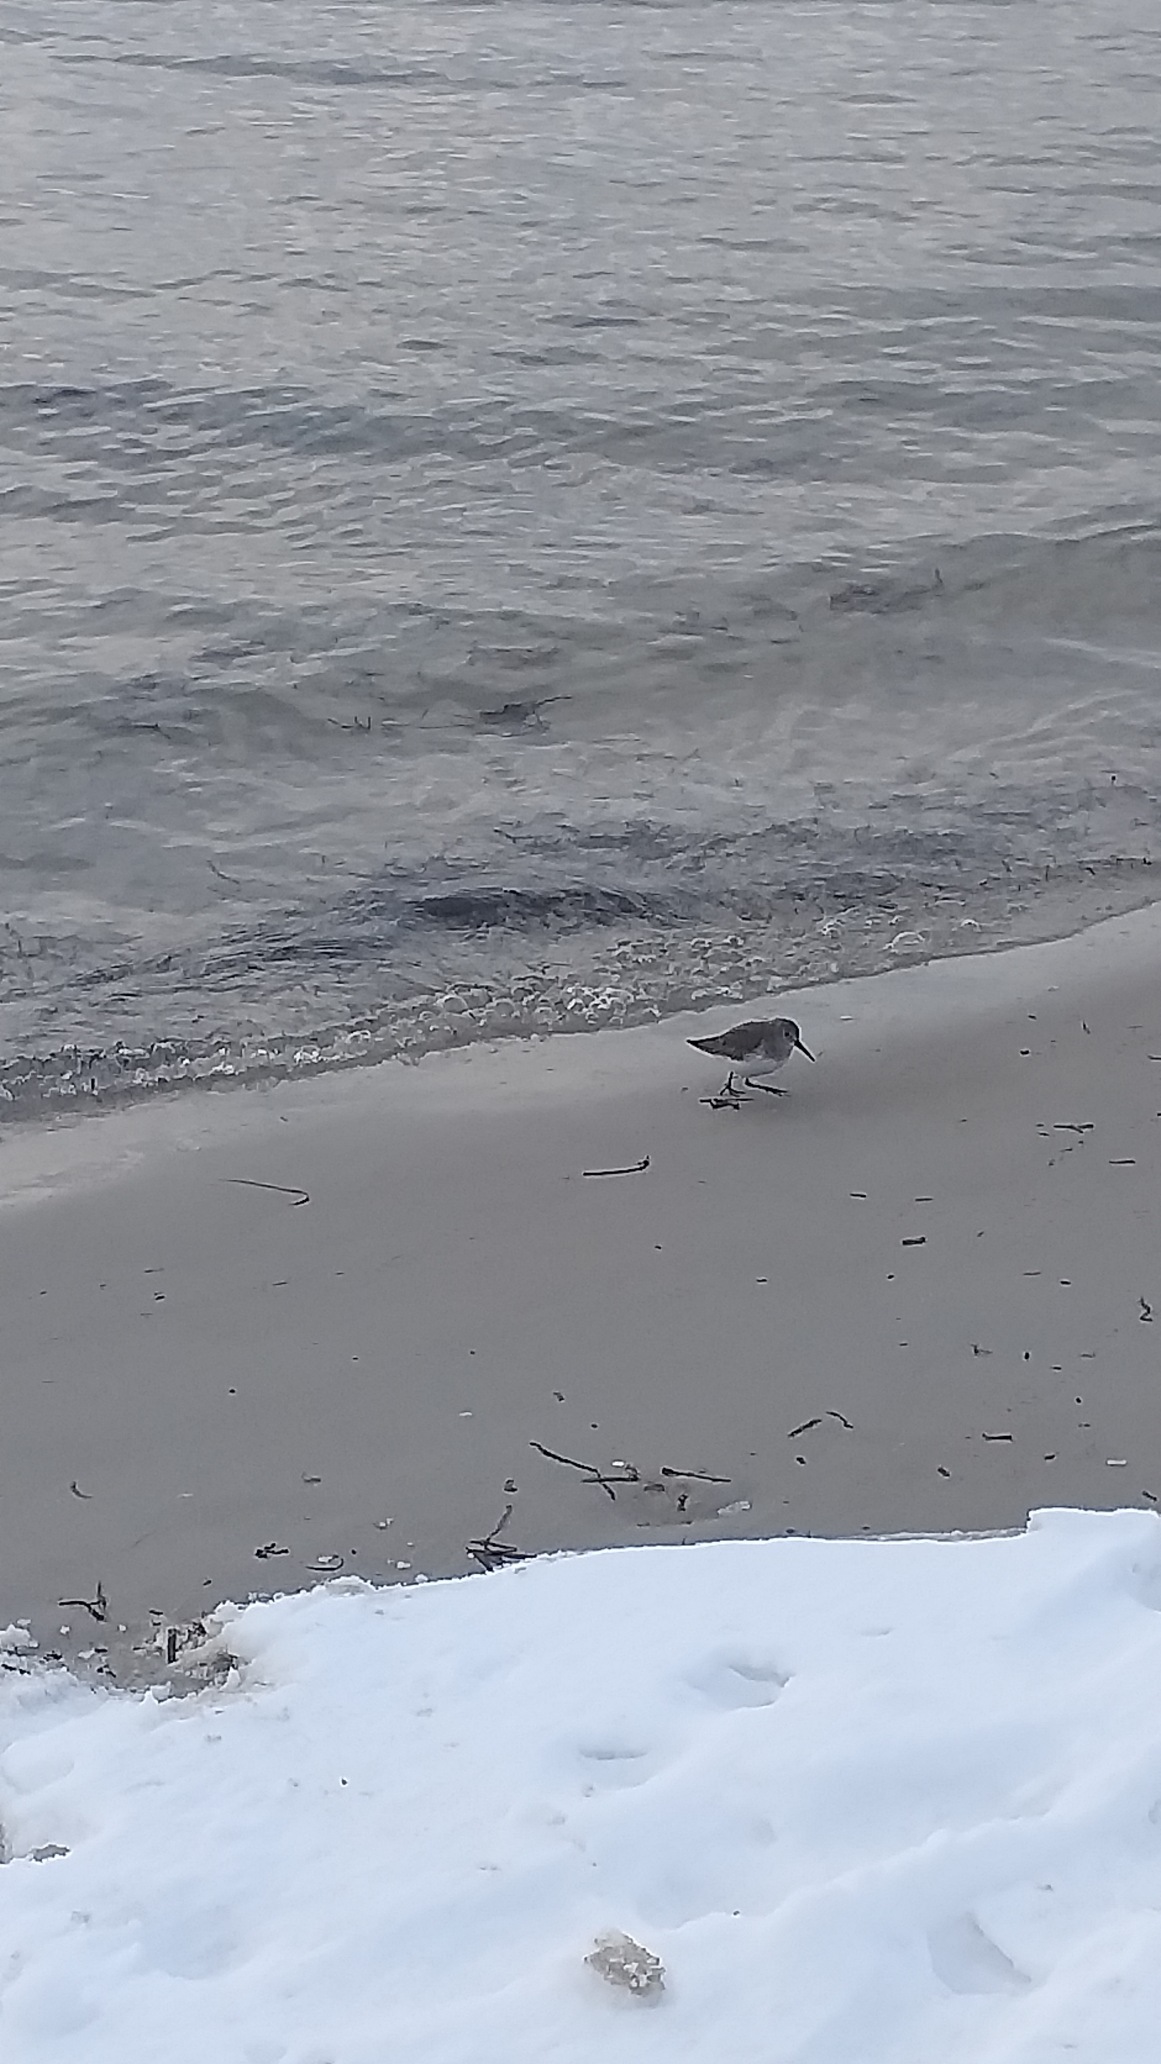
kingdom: Animalia
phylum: Chordata
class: Aves
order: Charadriiformes
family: Scolopacidae
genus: Calidris
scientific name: Calidris alpina
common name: Almindelig ryle
